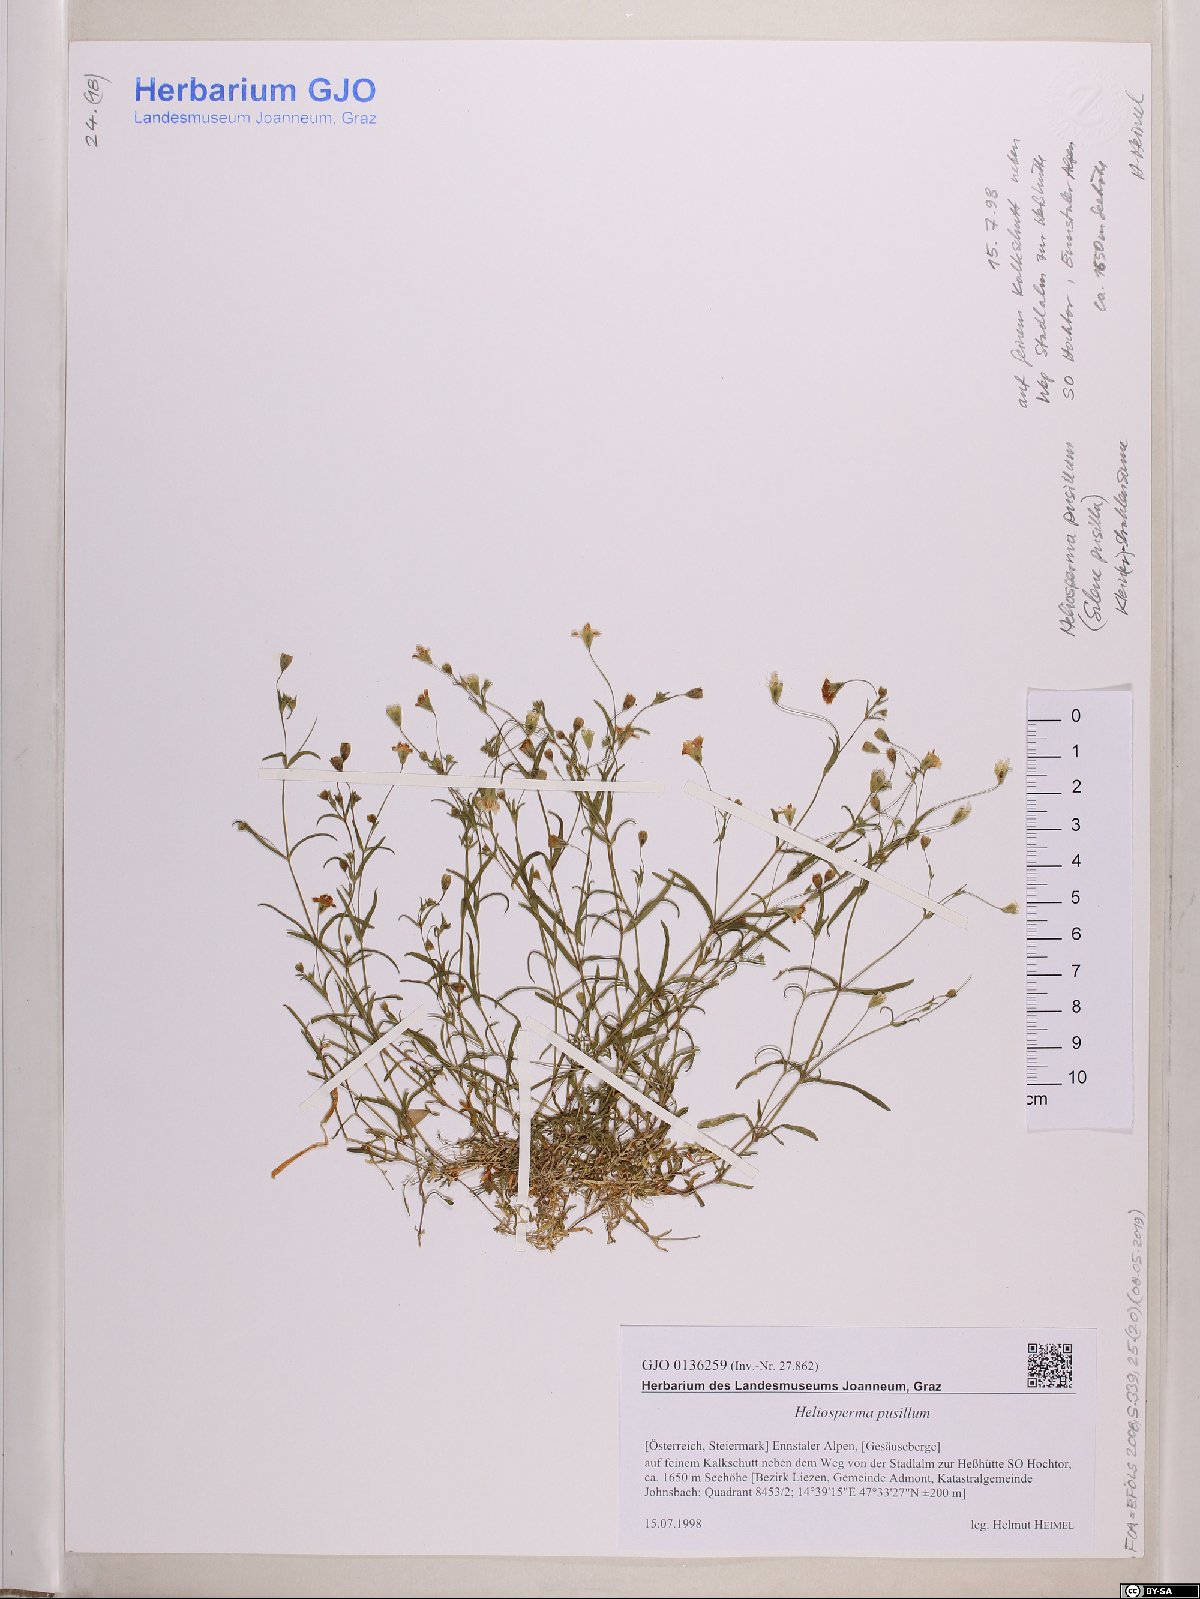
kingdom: Plantae
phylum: Tracheophyta
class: Magnoliopsida
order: Caryophyllales
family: Caryophyllaceae
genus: Heliosperma
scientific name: Heliosperma pusillum
